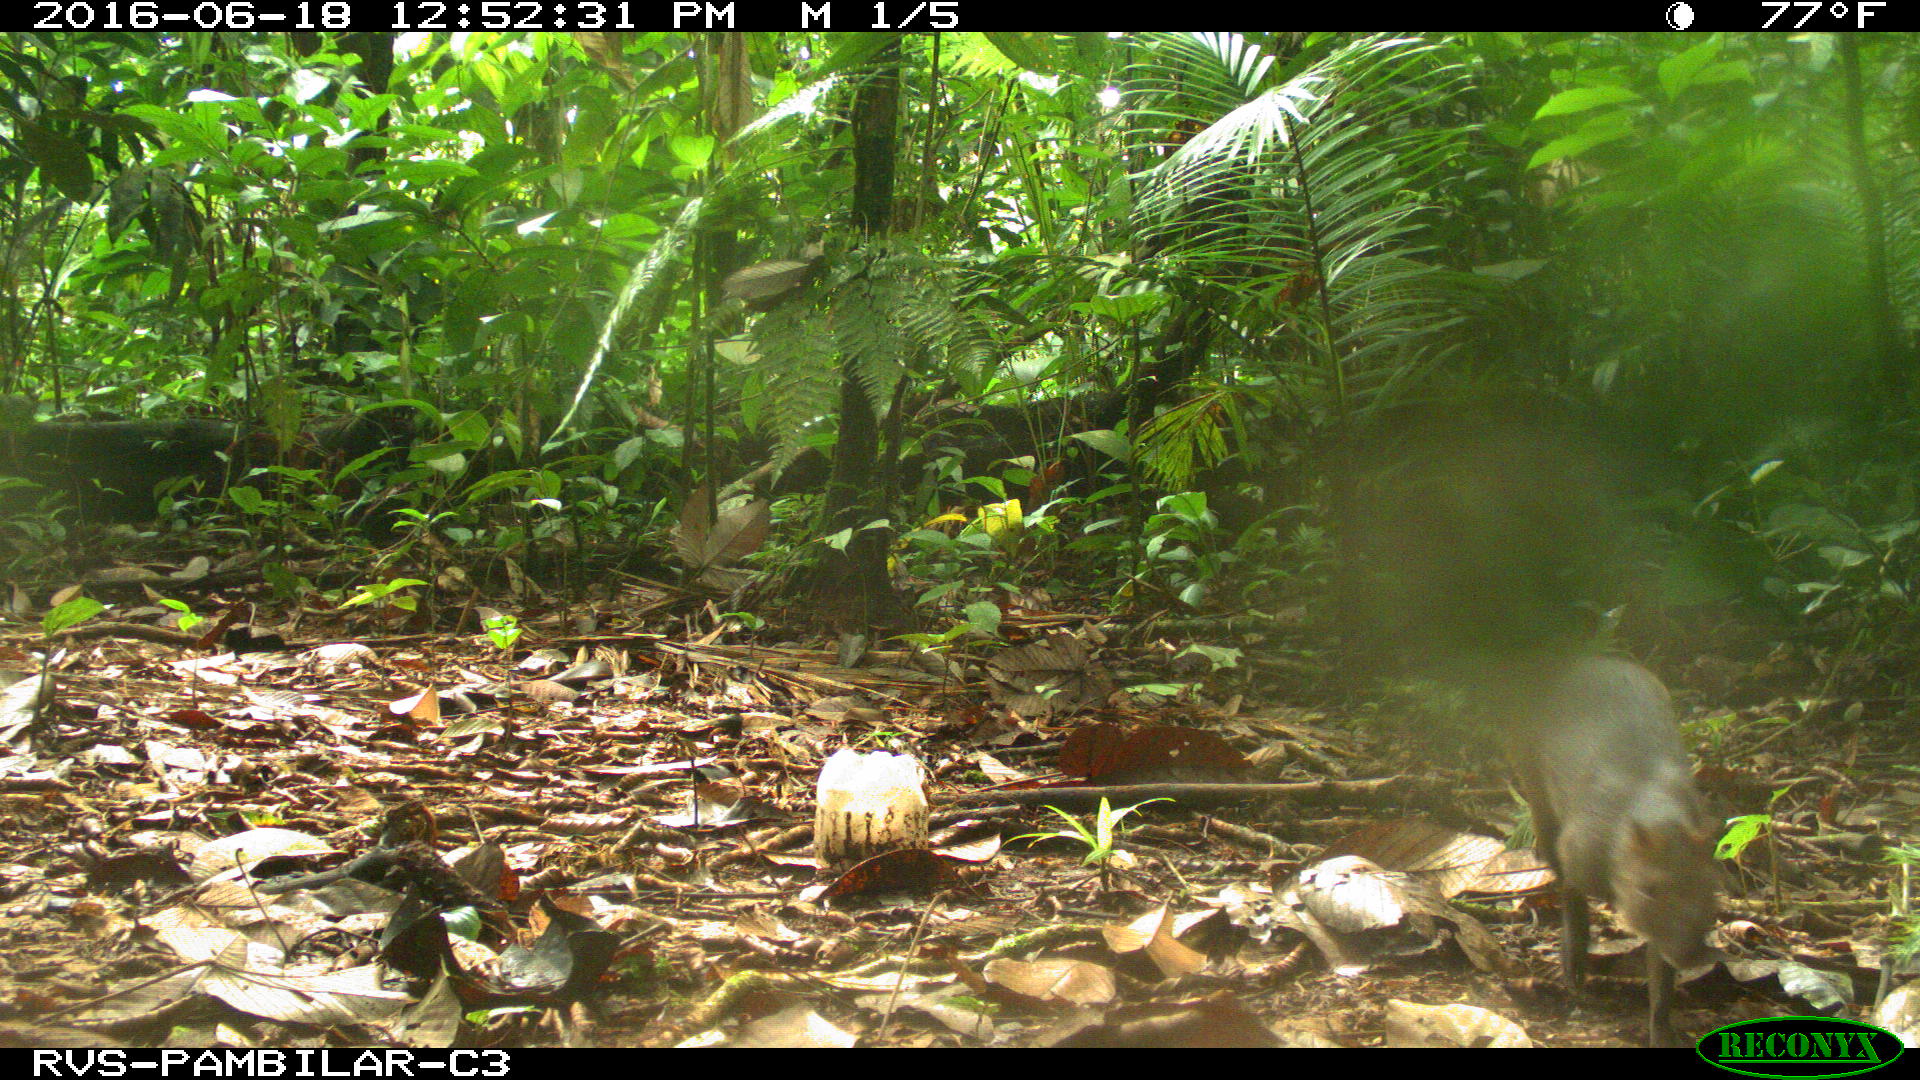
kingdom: Animalia
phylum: Chordata
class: Mammalia
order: Rodentia
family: Dasyproctidae
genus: Dasyprocta
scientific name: Dasyprocta punctata
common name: Central american agouti
